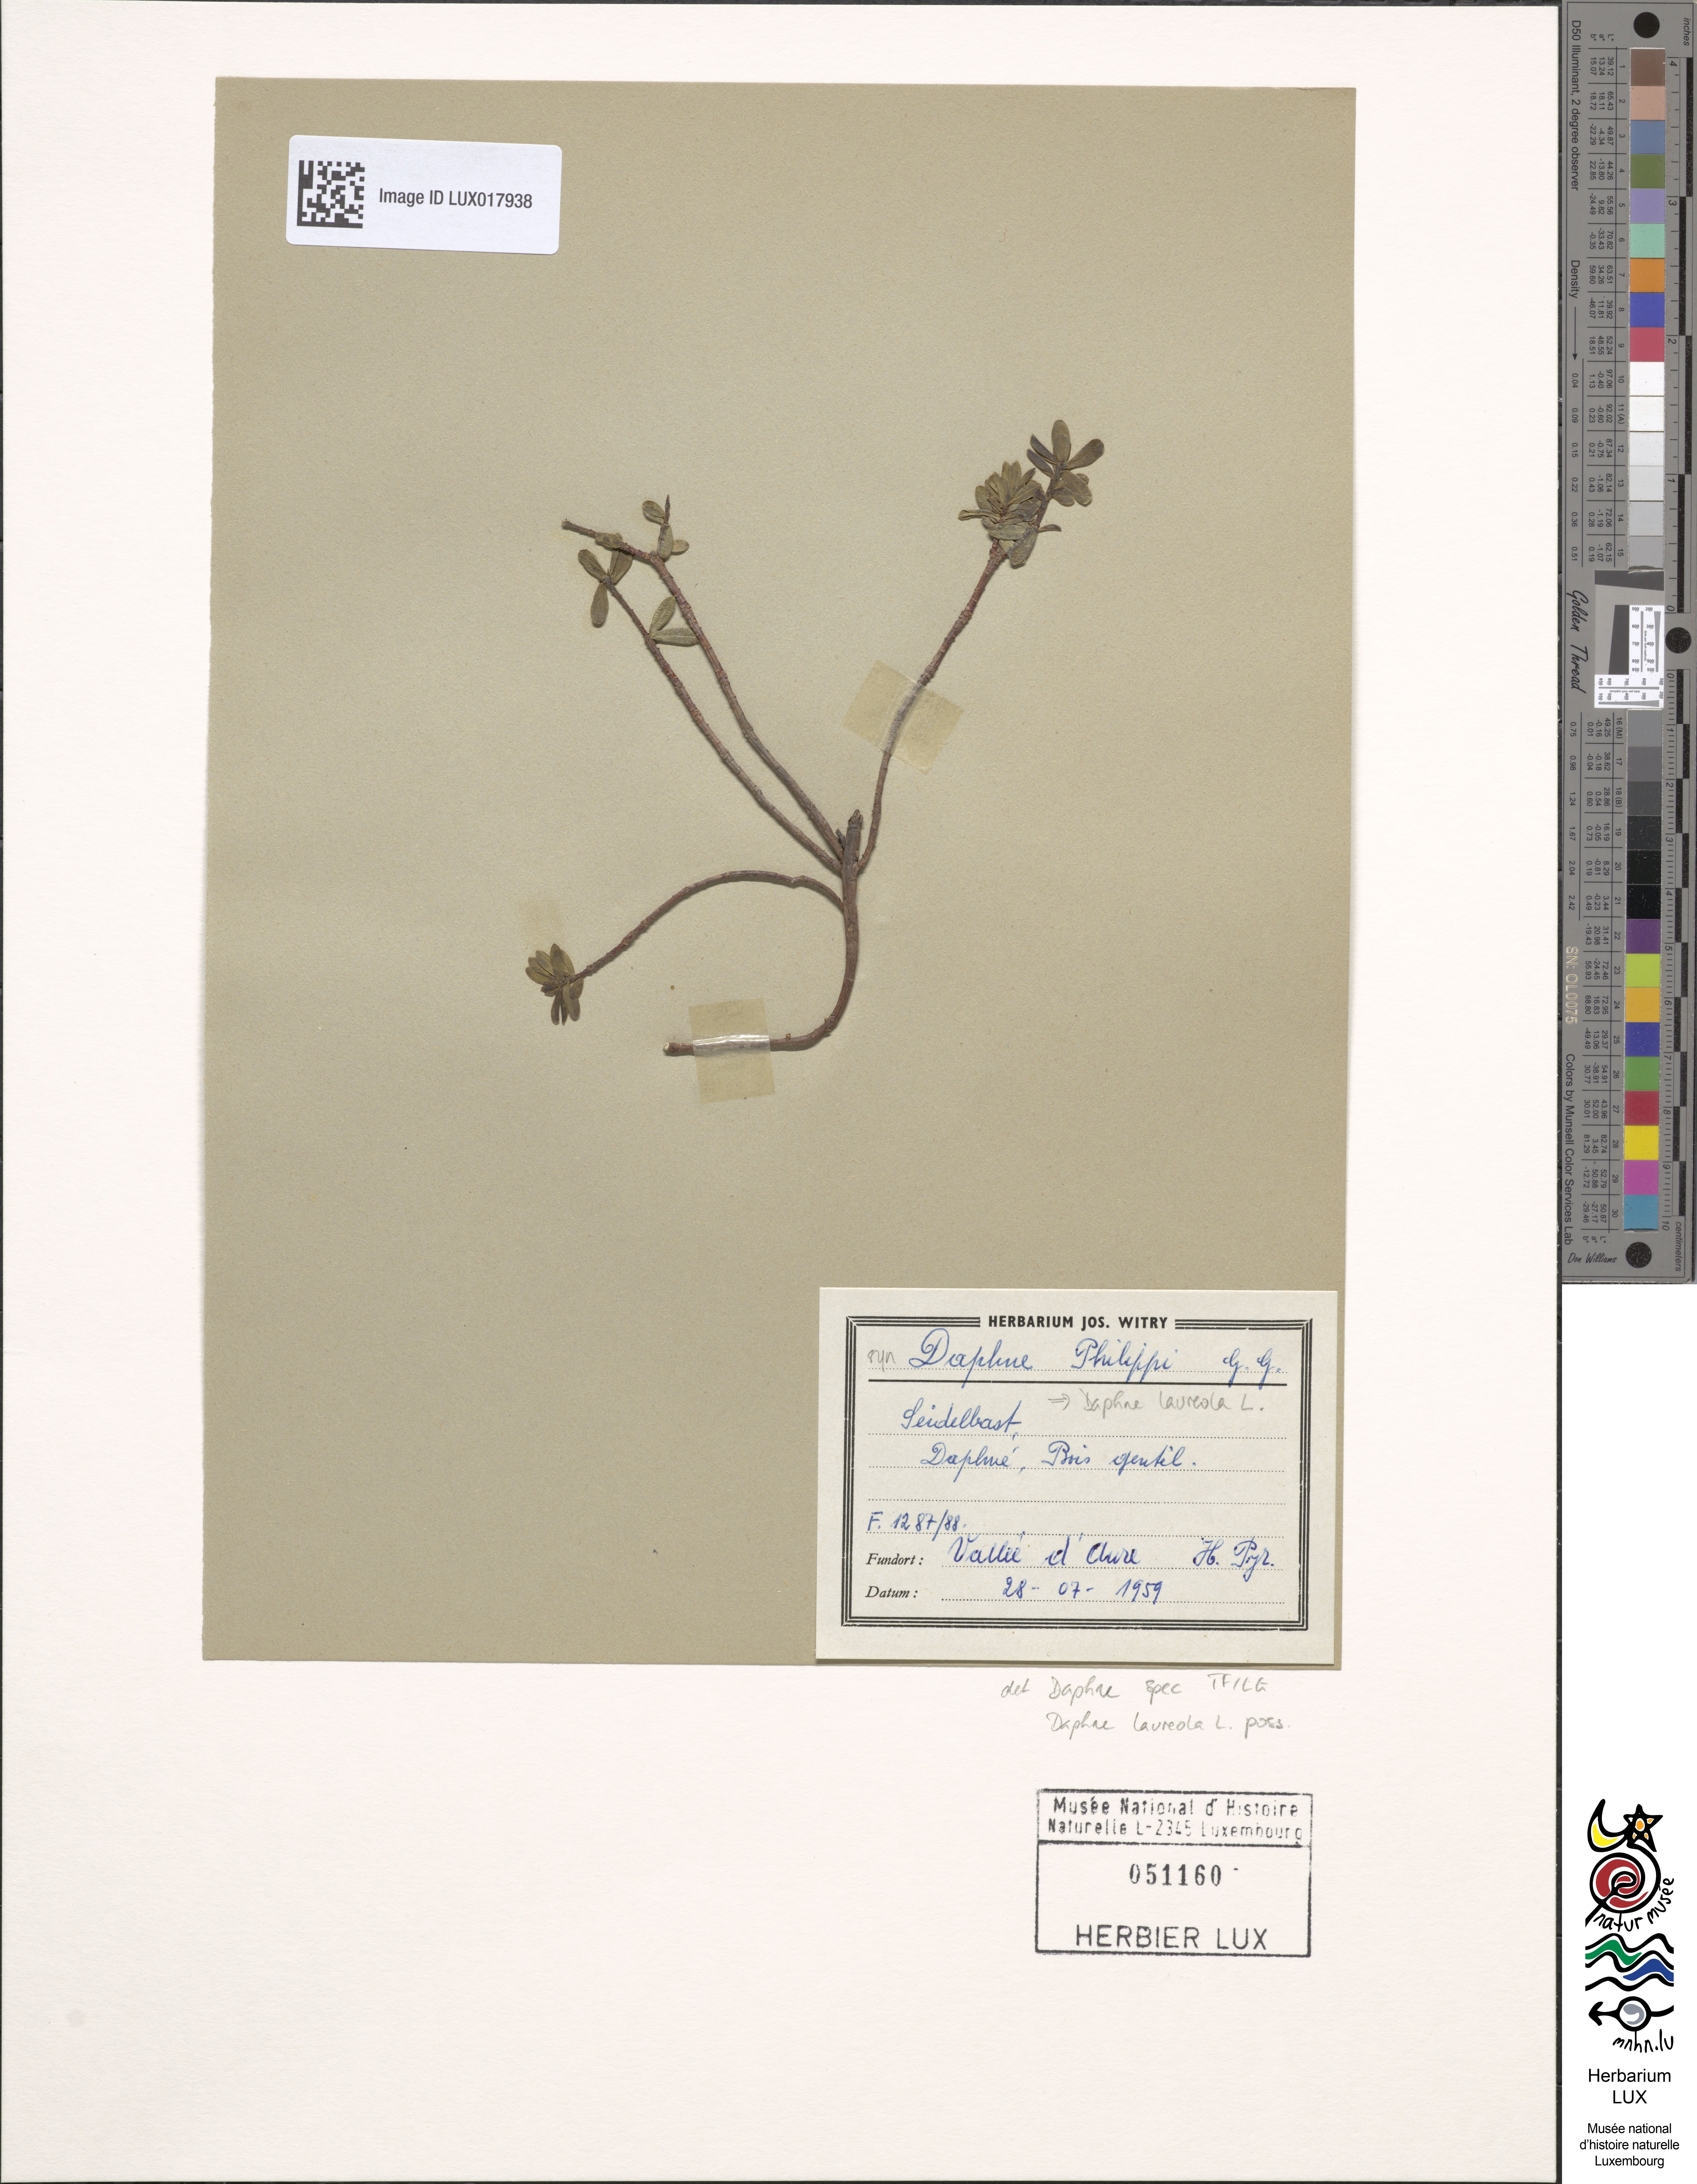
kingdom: Plantae
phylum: Tracheophyta
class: Magnoliopsida
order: Malvales
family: Thymelaeaceae
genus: Daphne
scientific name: Daphne laureola
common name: Spurge-laurel
